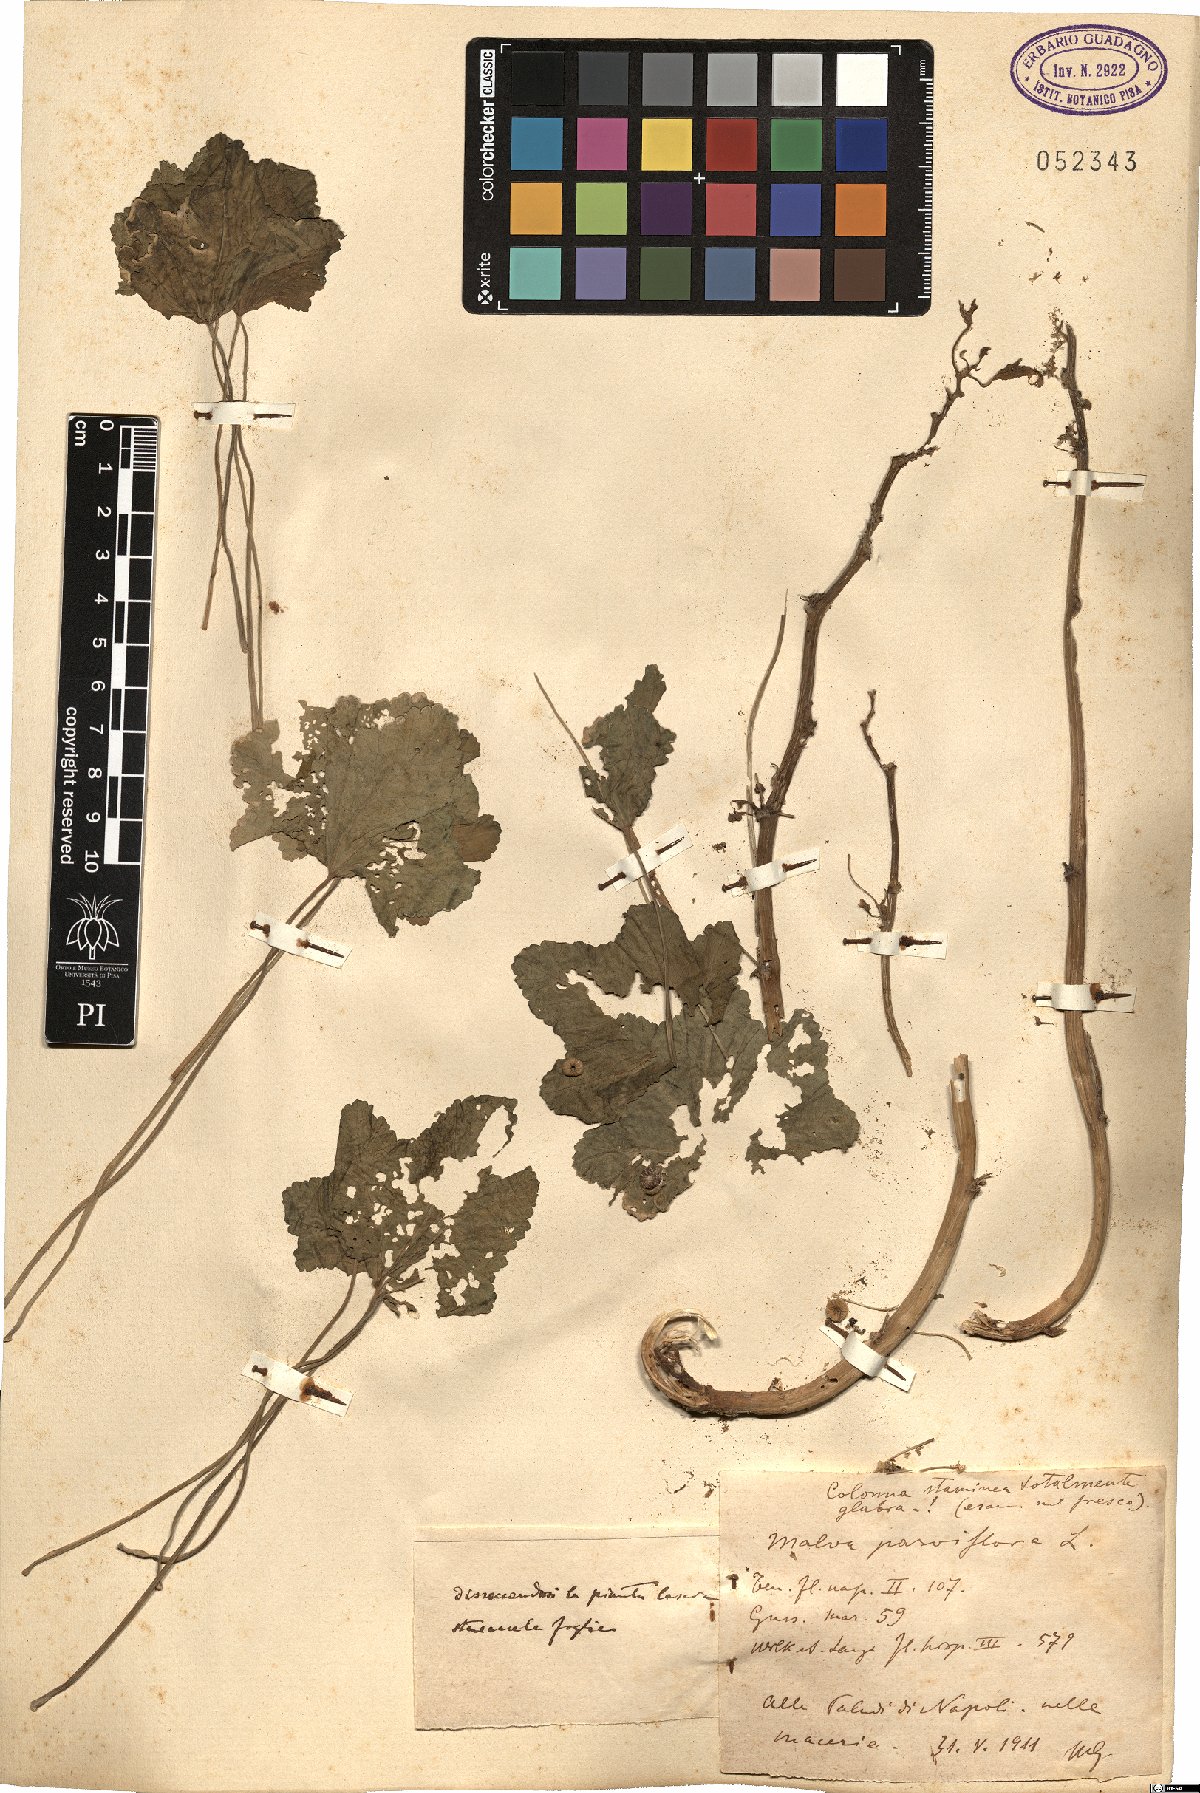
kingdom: Plantae
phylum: Tracheophyta
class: Magnoliopsida
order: Malvales
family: Malvaceae
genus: Malva
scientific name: Malva parviflora
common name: Least mallow
